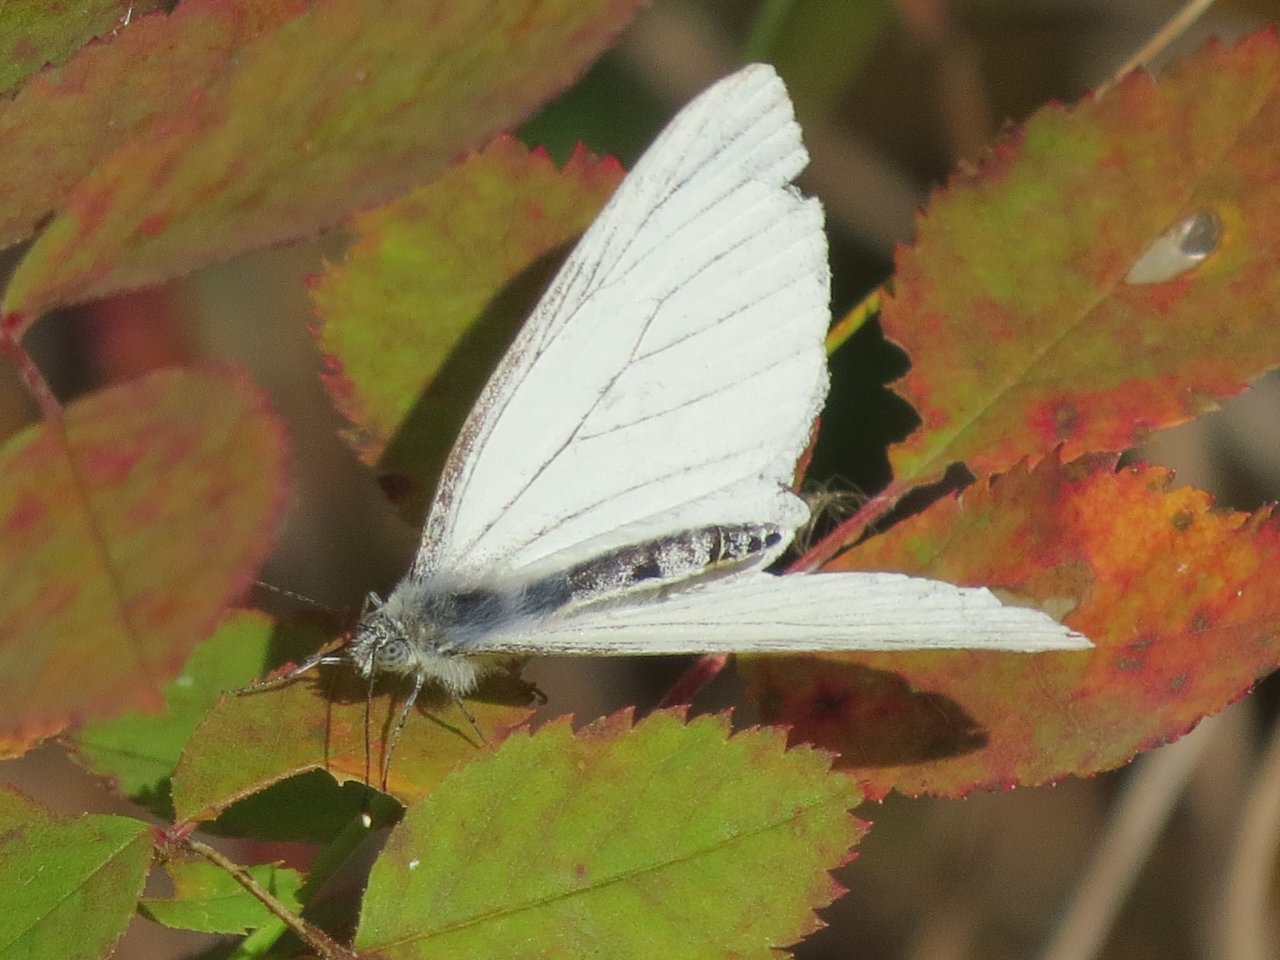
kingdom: Animalia
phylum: Arthropoda
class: Insecta
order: Lepidoptera
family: Pieridae
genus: Pieris
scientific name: Pieris oleracea
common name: Mustard White
